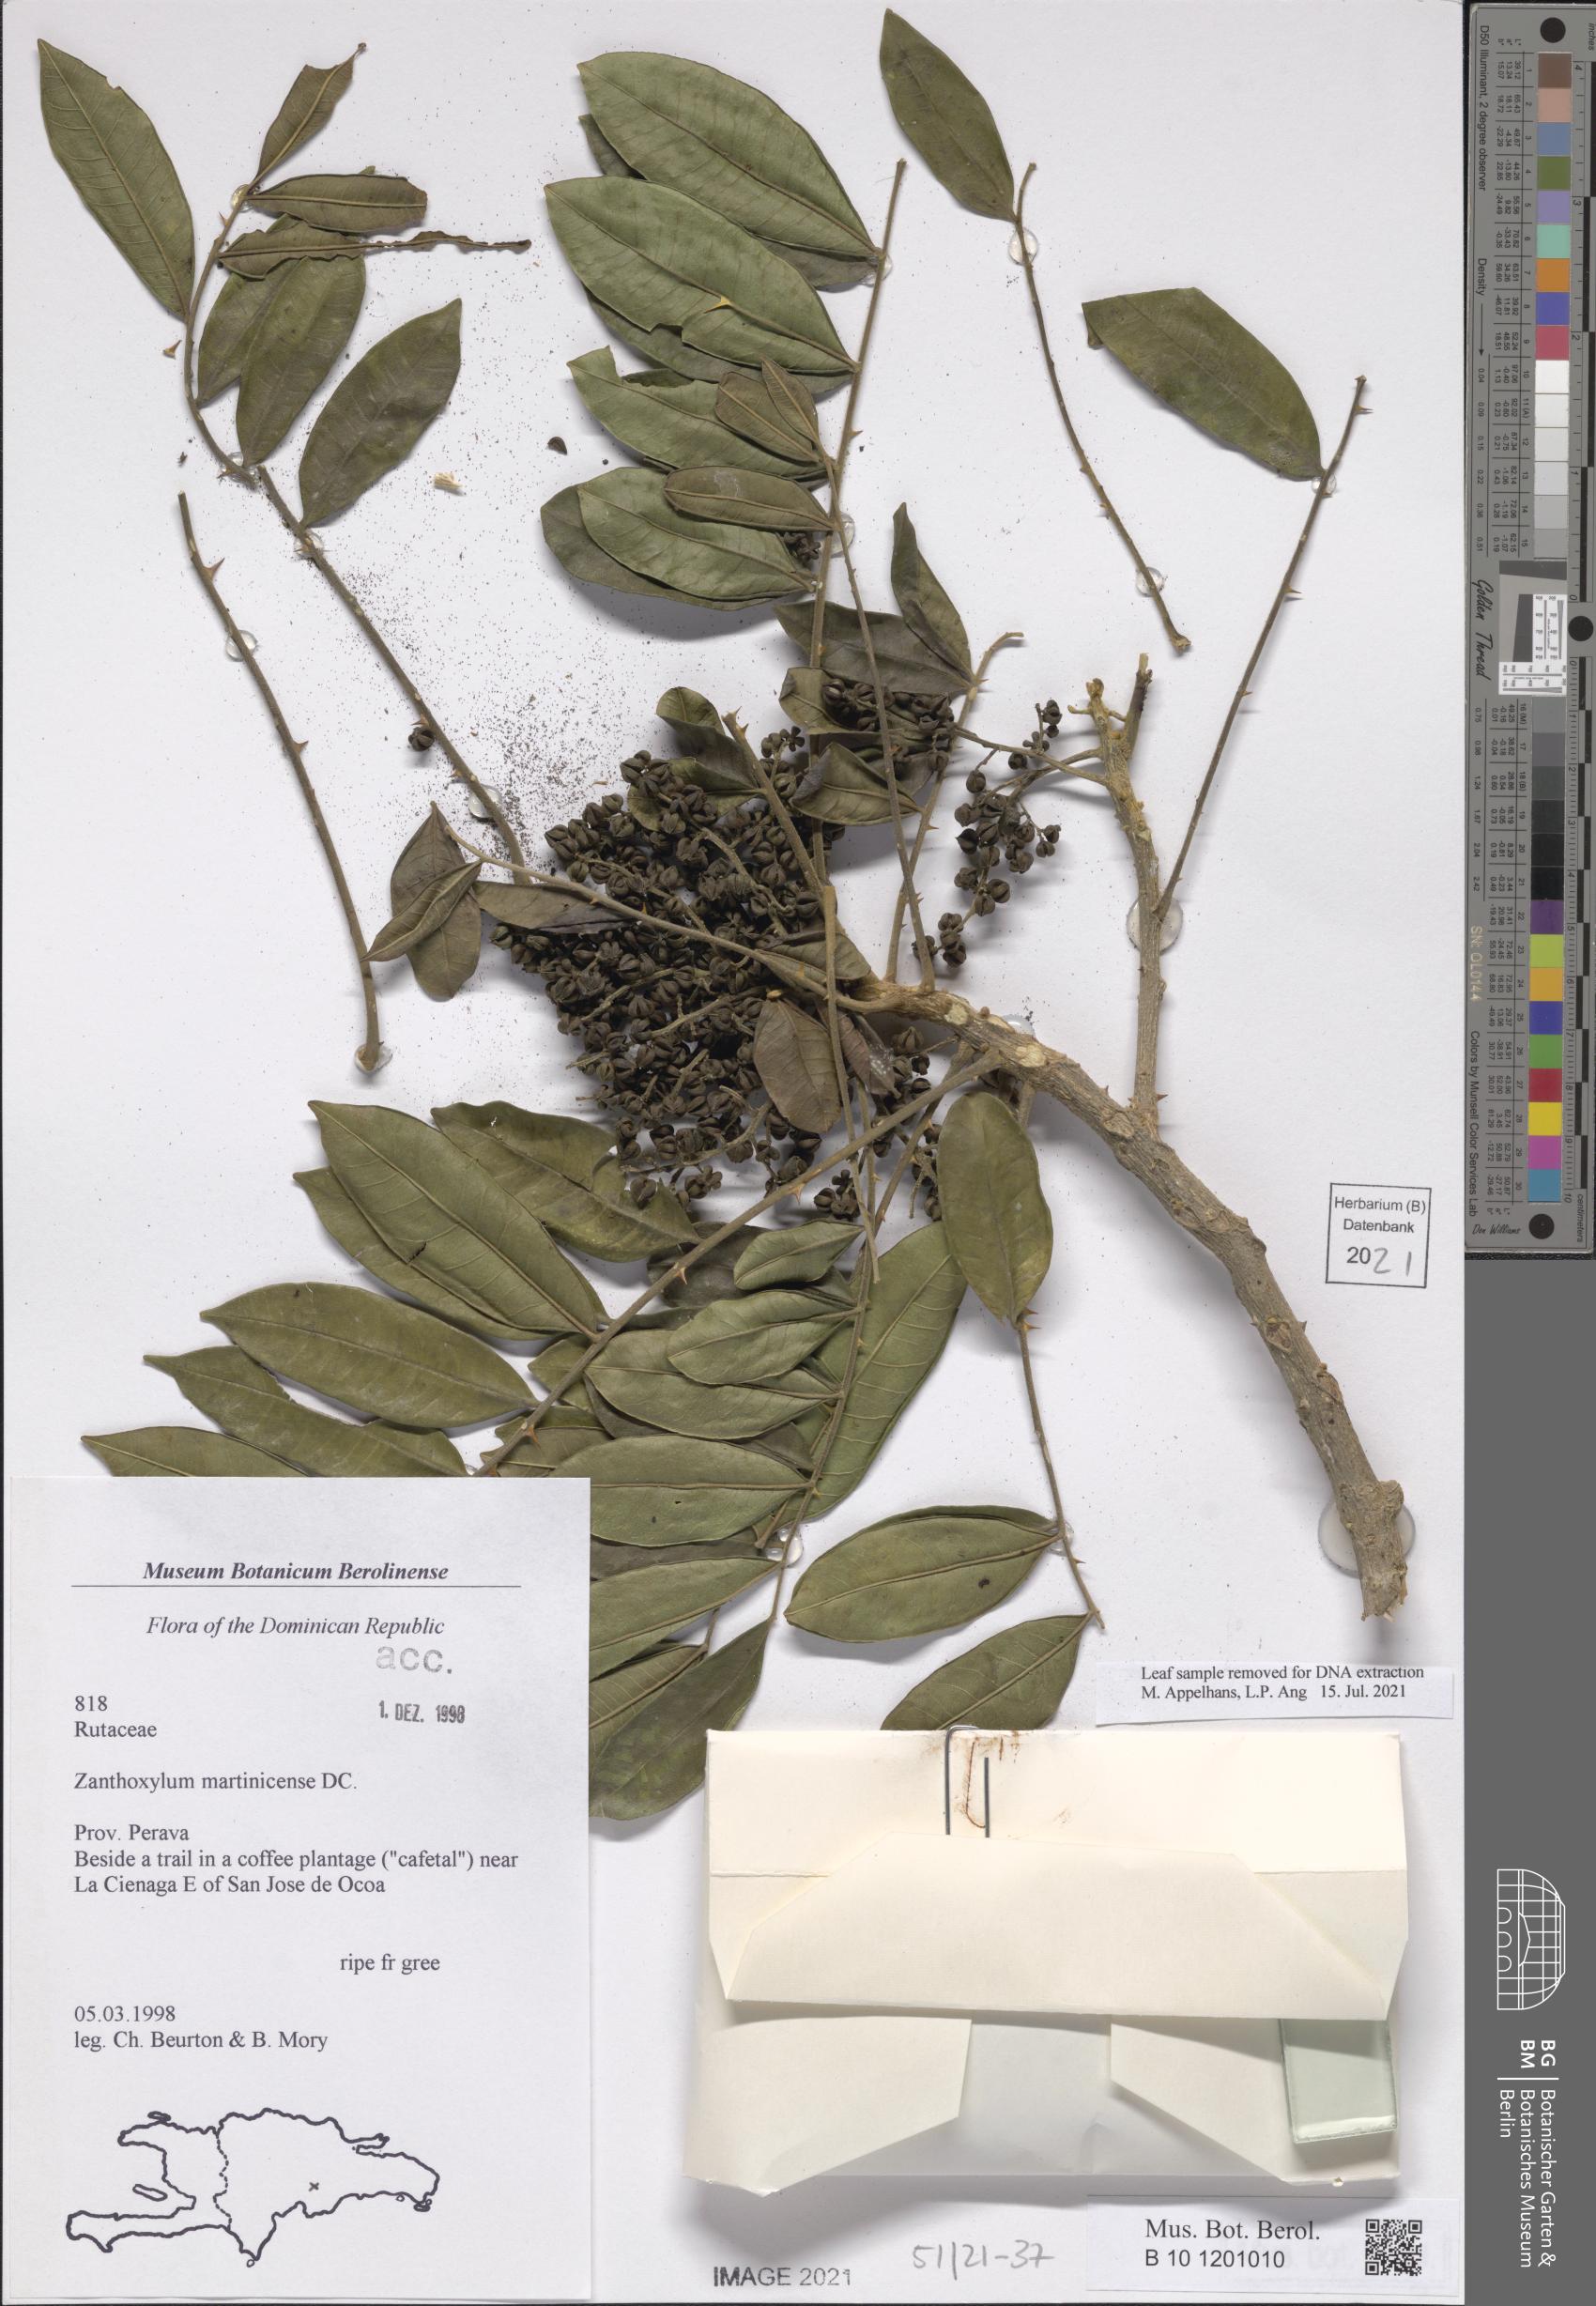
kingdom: Plantae
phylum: Tracheophyta
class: Magnoliopsida
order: Sapindales
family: Rutaceae
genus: Zanthoxylum
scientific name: Zanthoxylum martinicense
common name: Yellow prickle
